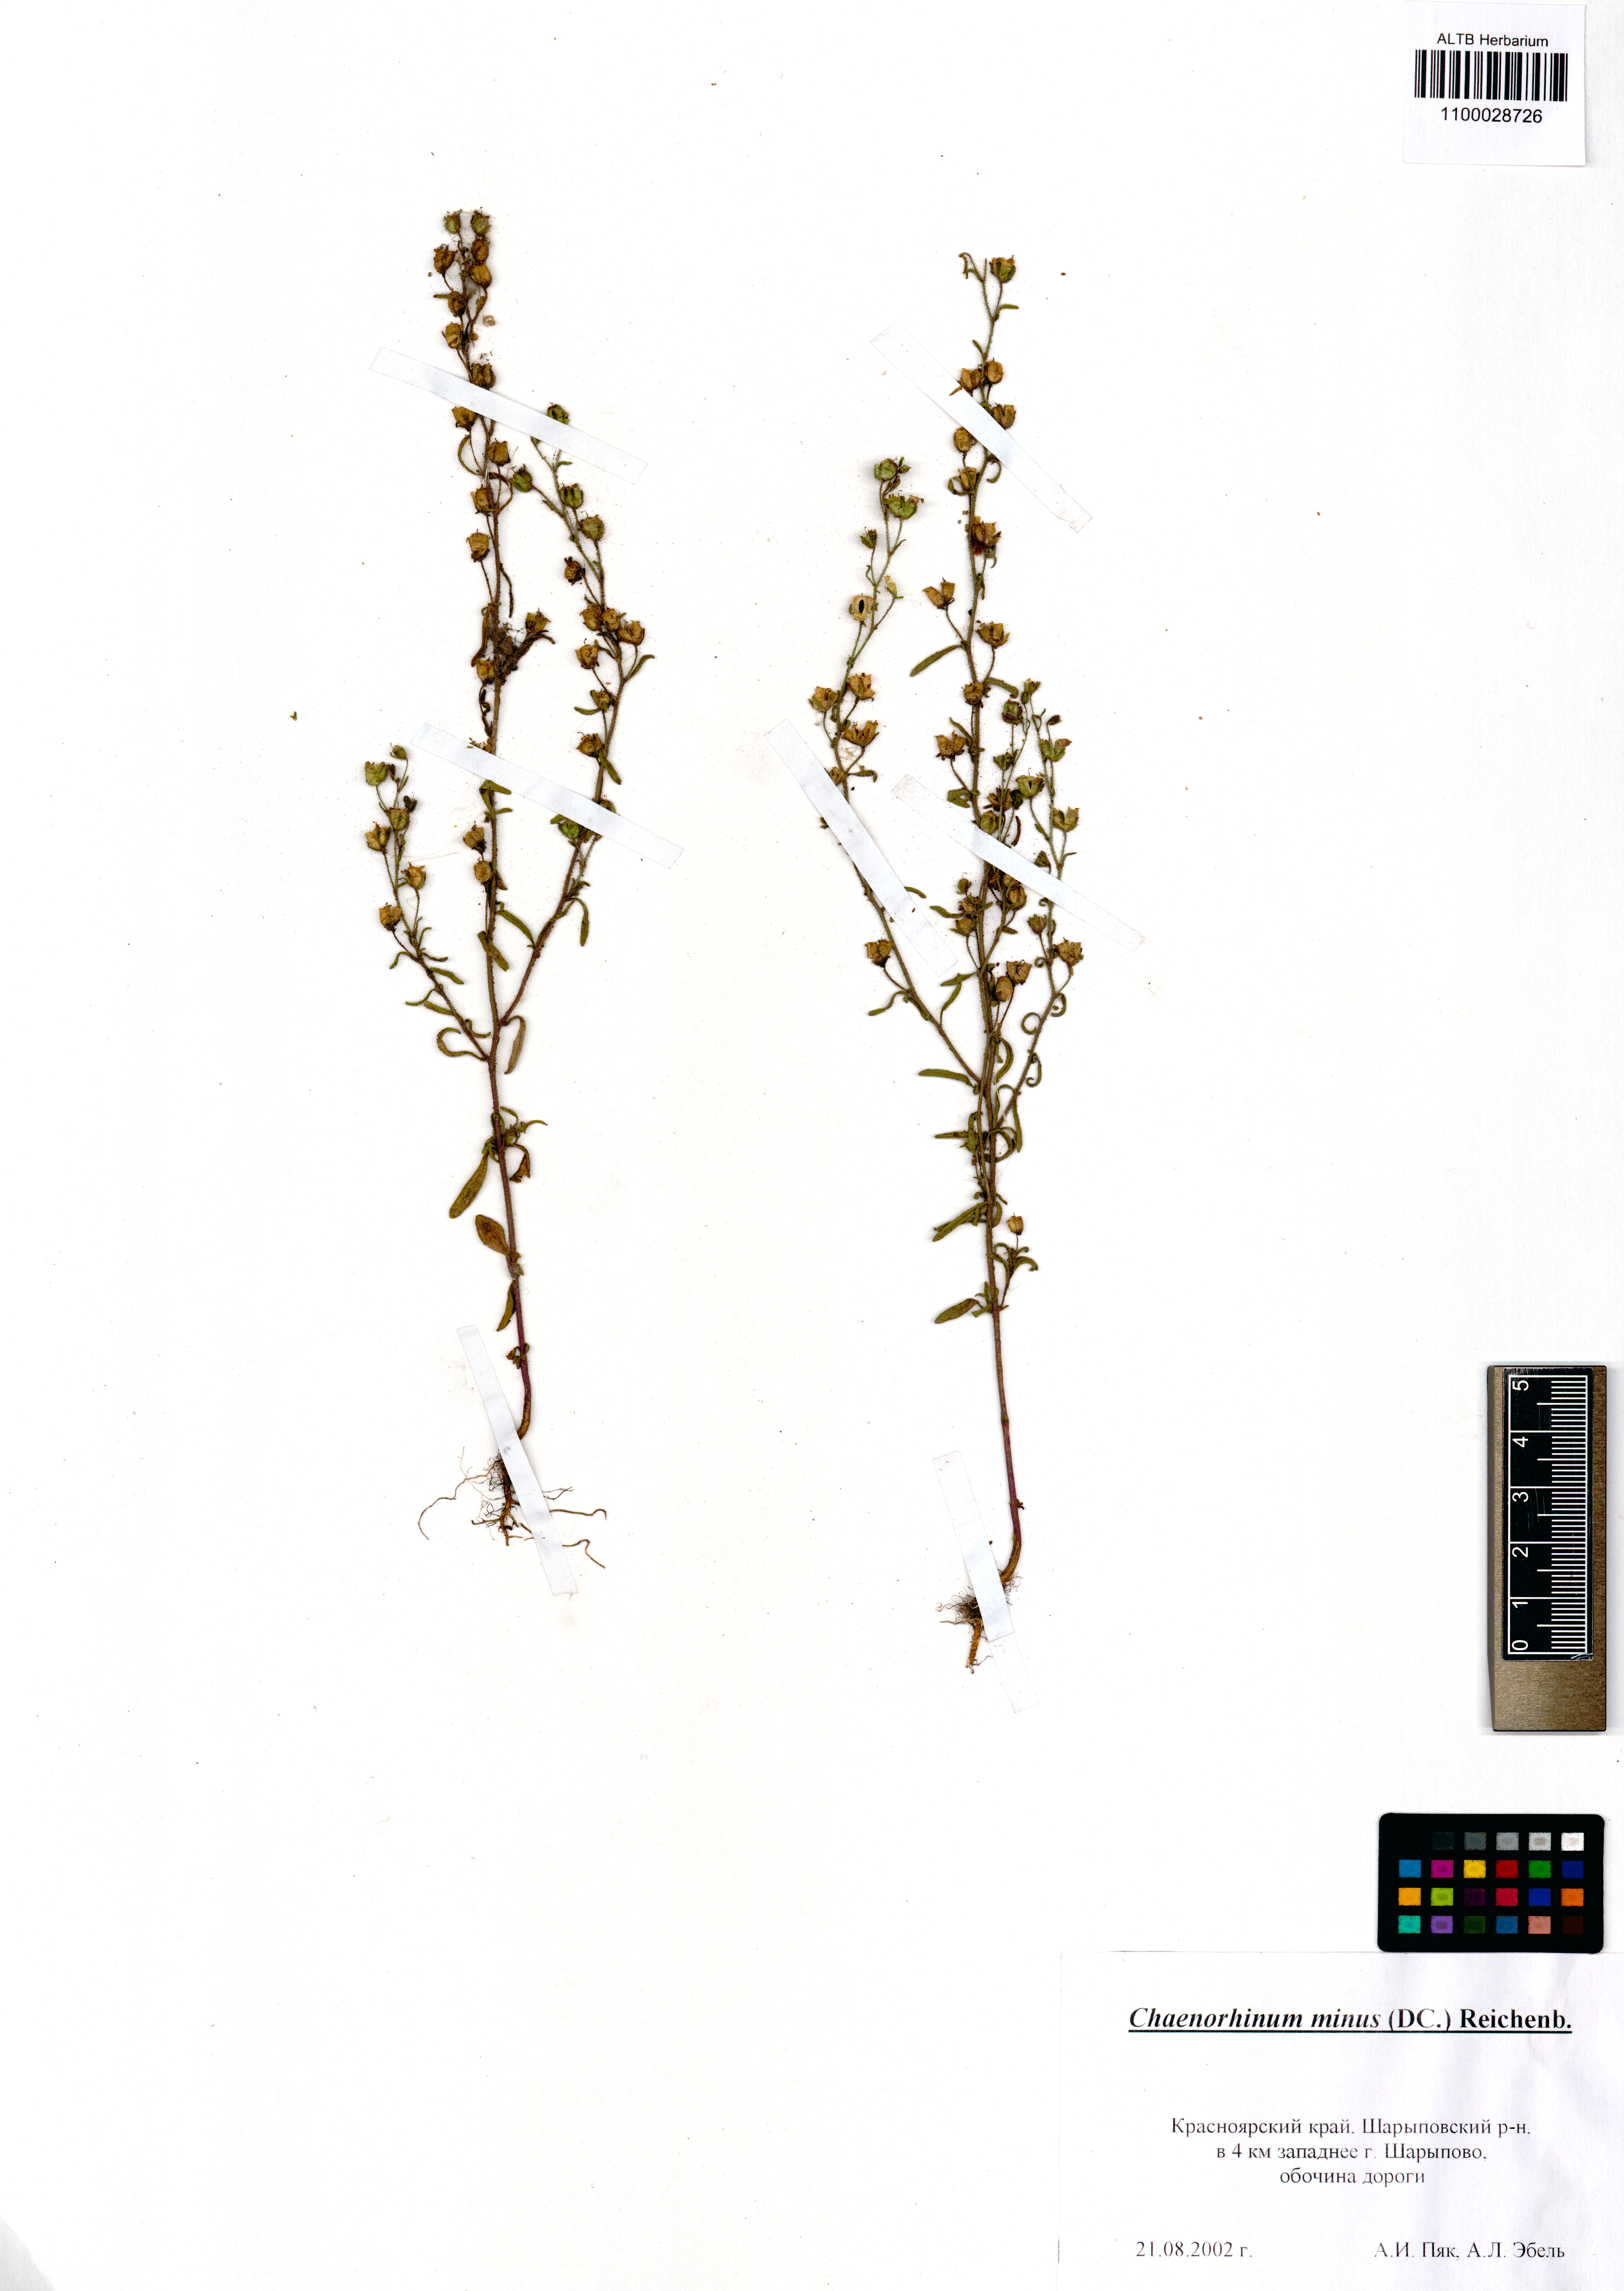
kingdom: Plantae
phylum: Tracheophyta
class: Magnoliopsida
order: Lamiales
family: Plantaginaceae
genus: Chaenorhinum
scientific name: Chaenorhinum minus
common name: Dwarf snapdragon
